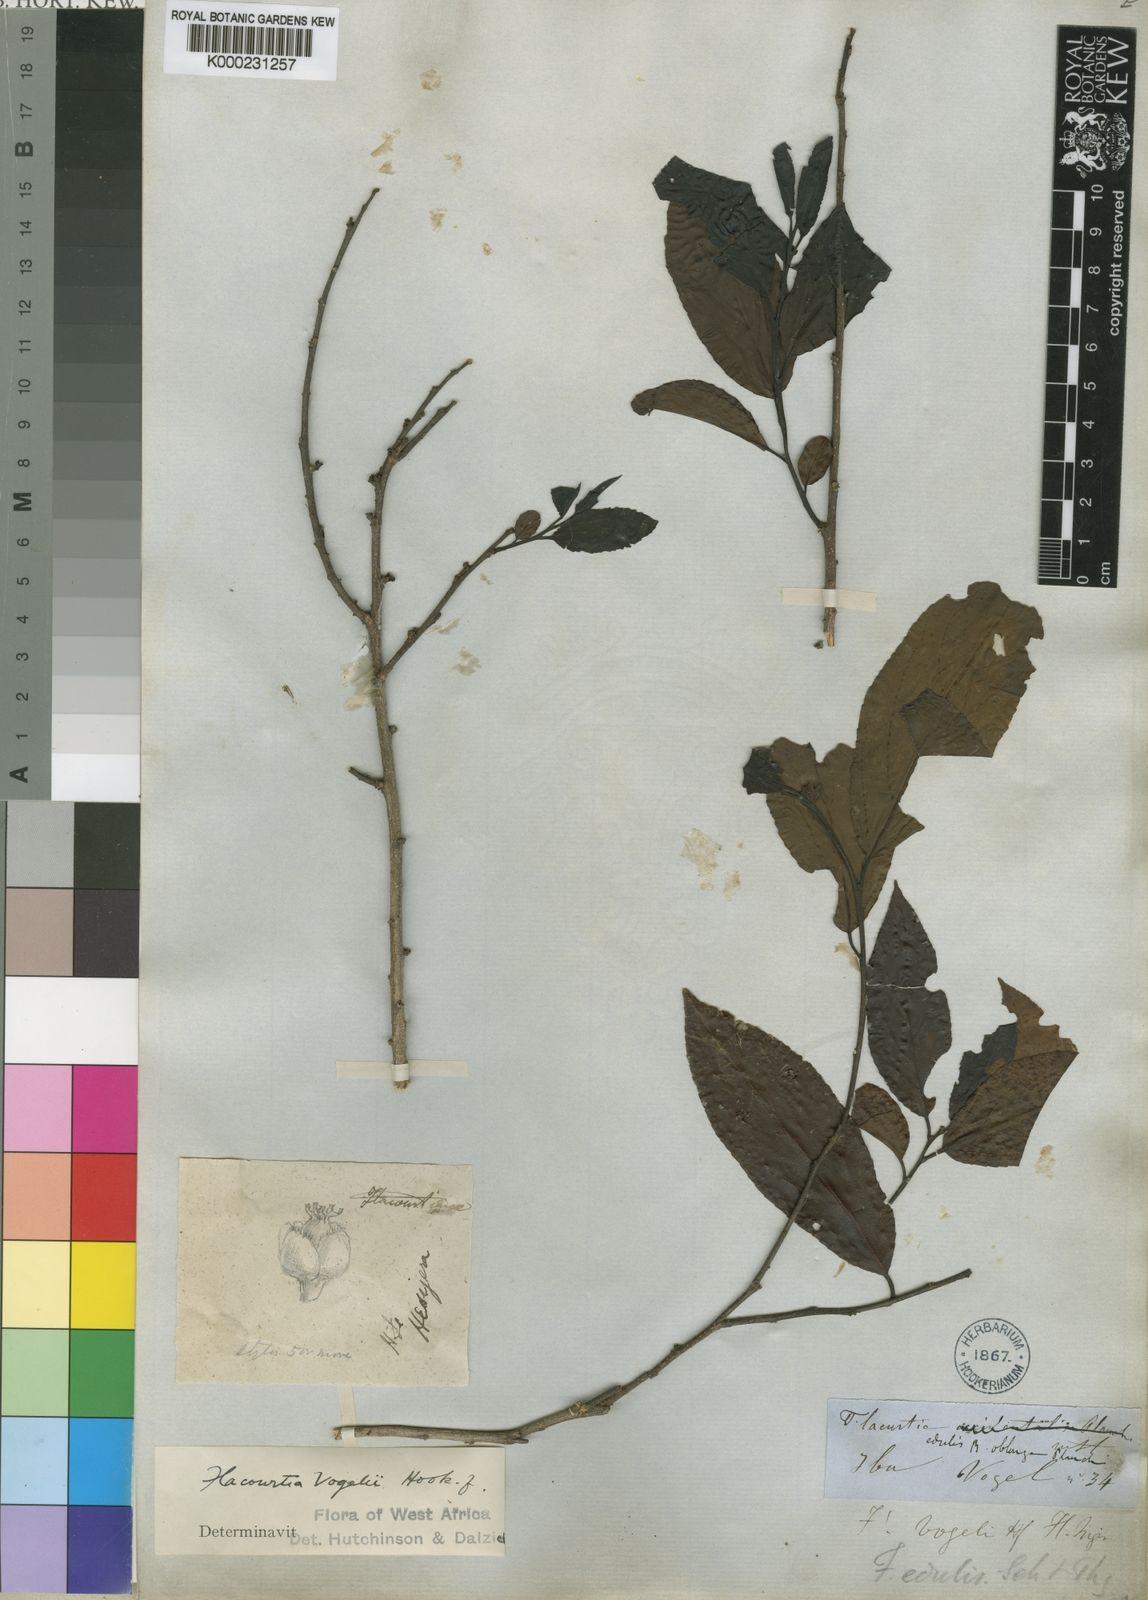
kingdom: Plantae
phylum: Tracheophyta
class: Magnoliopsida
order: Malpighiales
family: Salicaceae
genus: Flacourtia
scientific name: Flacourtia vogelii
